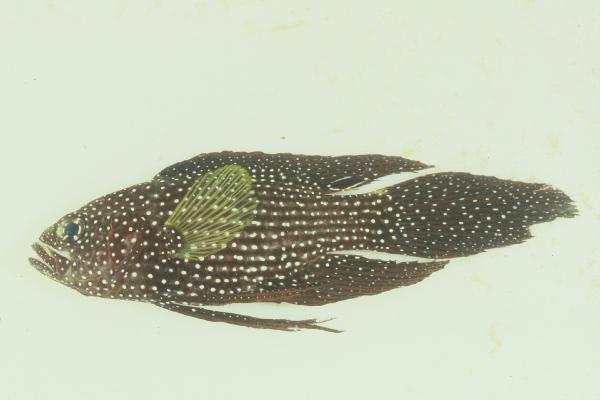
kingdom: Animalia
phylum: Chordata
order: Perciformes
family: Plesiopidae
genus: Calloplesiops
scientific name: Calloplesiops altivelis
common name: Comet
